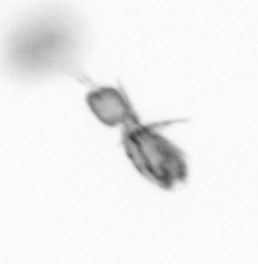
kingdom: Animalia
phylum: Arthropoda
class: Copepoda
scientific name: Copepoda
